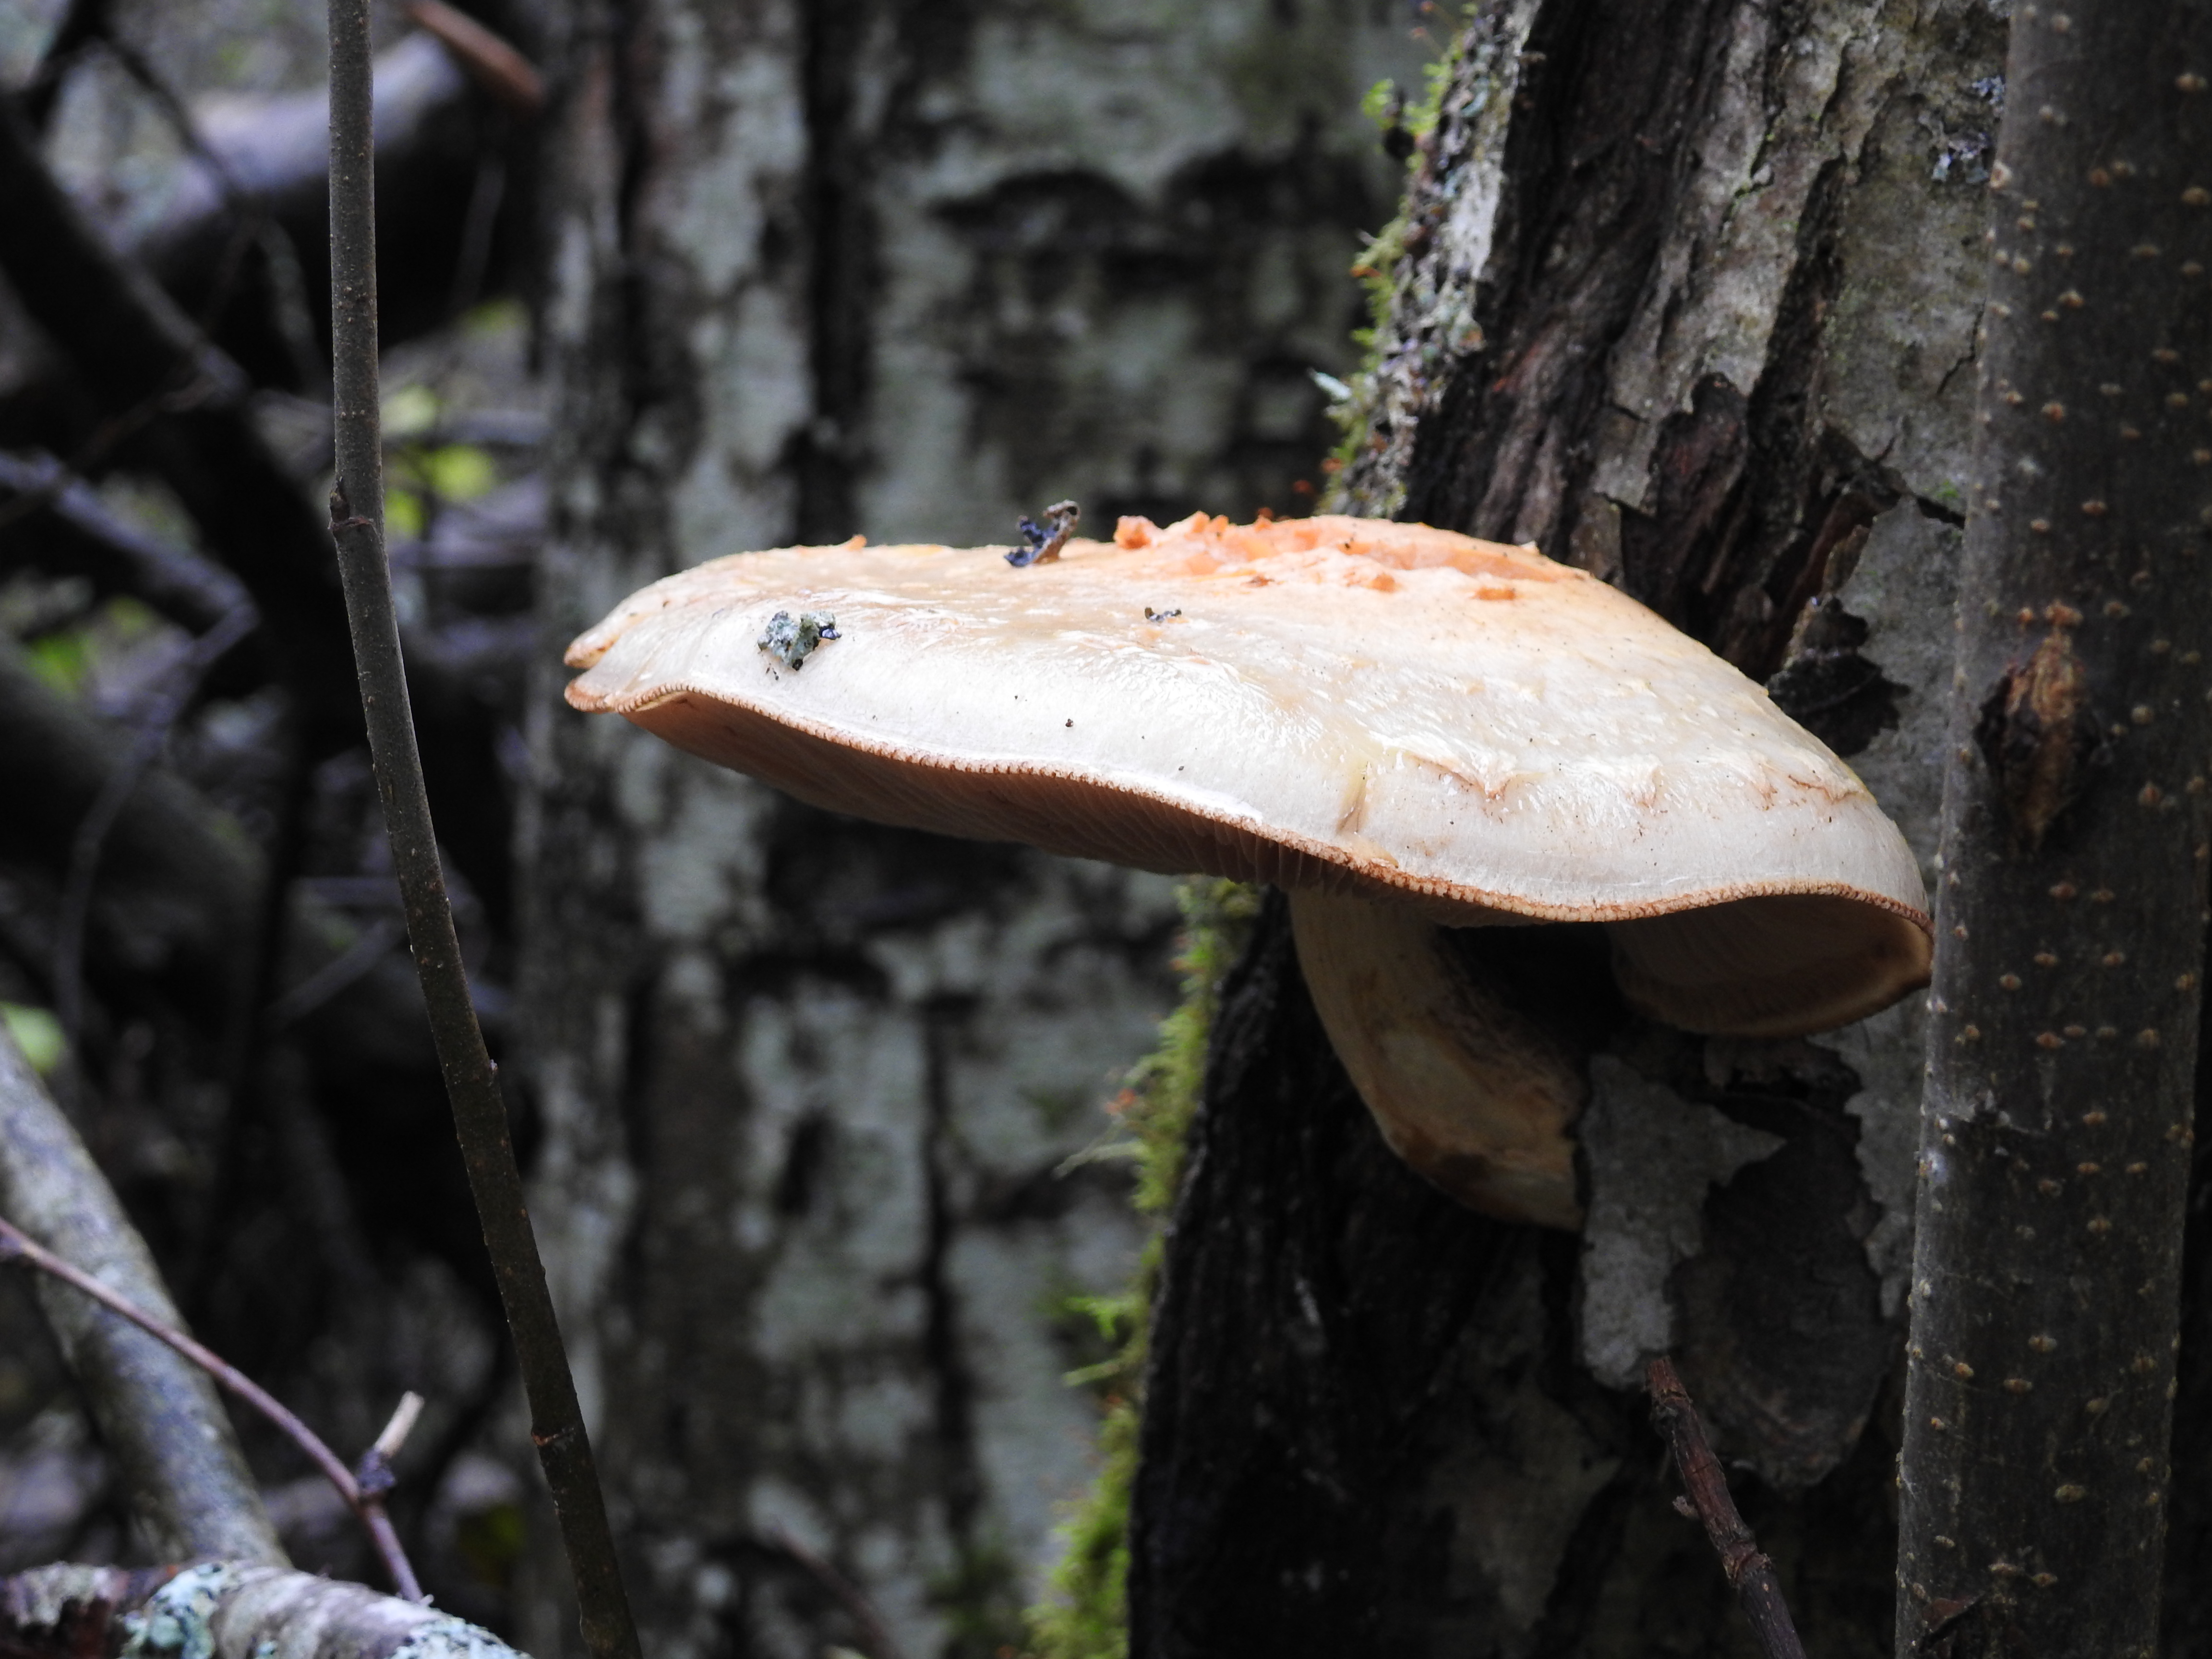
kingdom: Fungi
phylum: Basidiomycota
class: Agaricomycetes
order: Agaricales
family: Strophariaceae
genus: Pholiota
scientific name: Pholiota heteroclita
